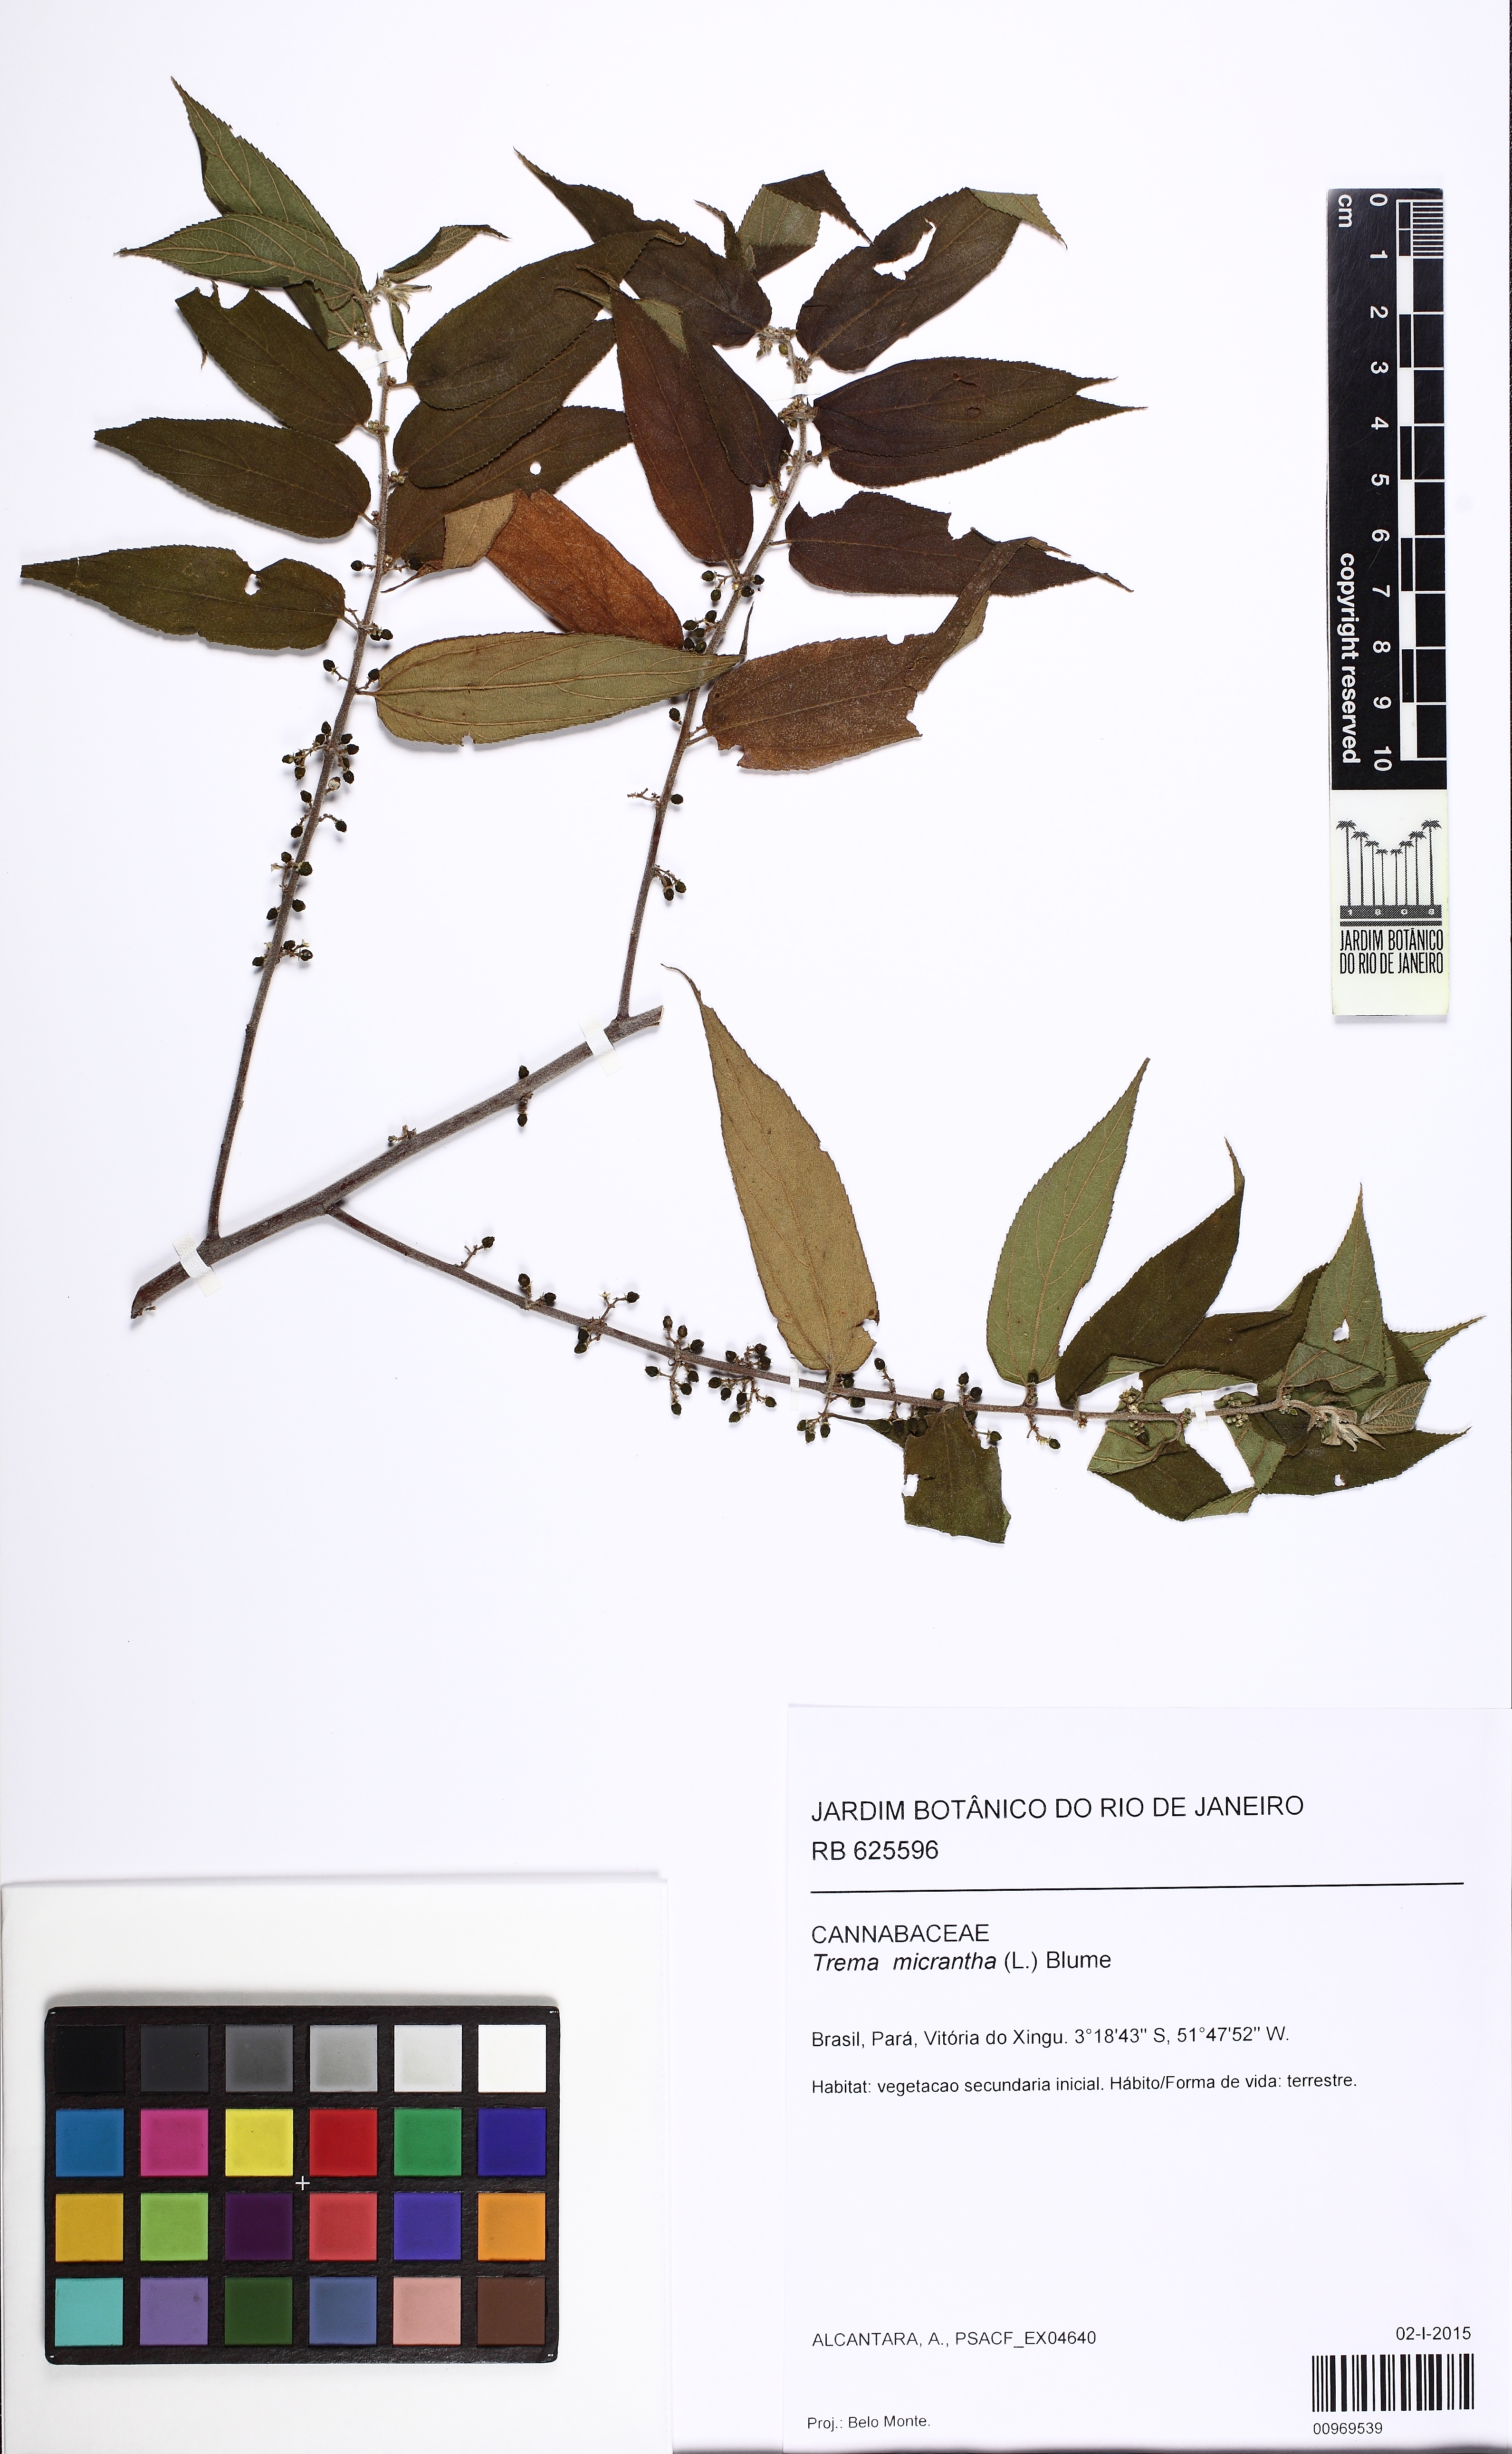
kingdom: Plantae
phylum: Tracheophyta
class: Magnoliopsida
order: Rosales
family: Cannabaceae
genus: Trema
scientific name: Trema micranthum
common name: Jamaican nettletree
